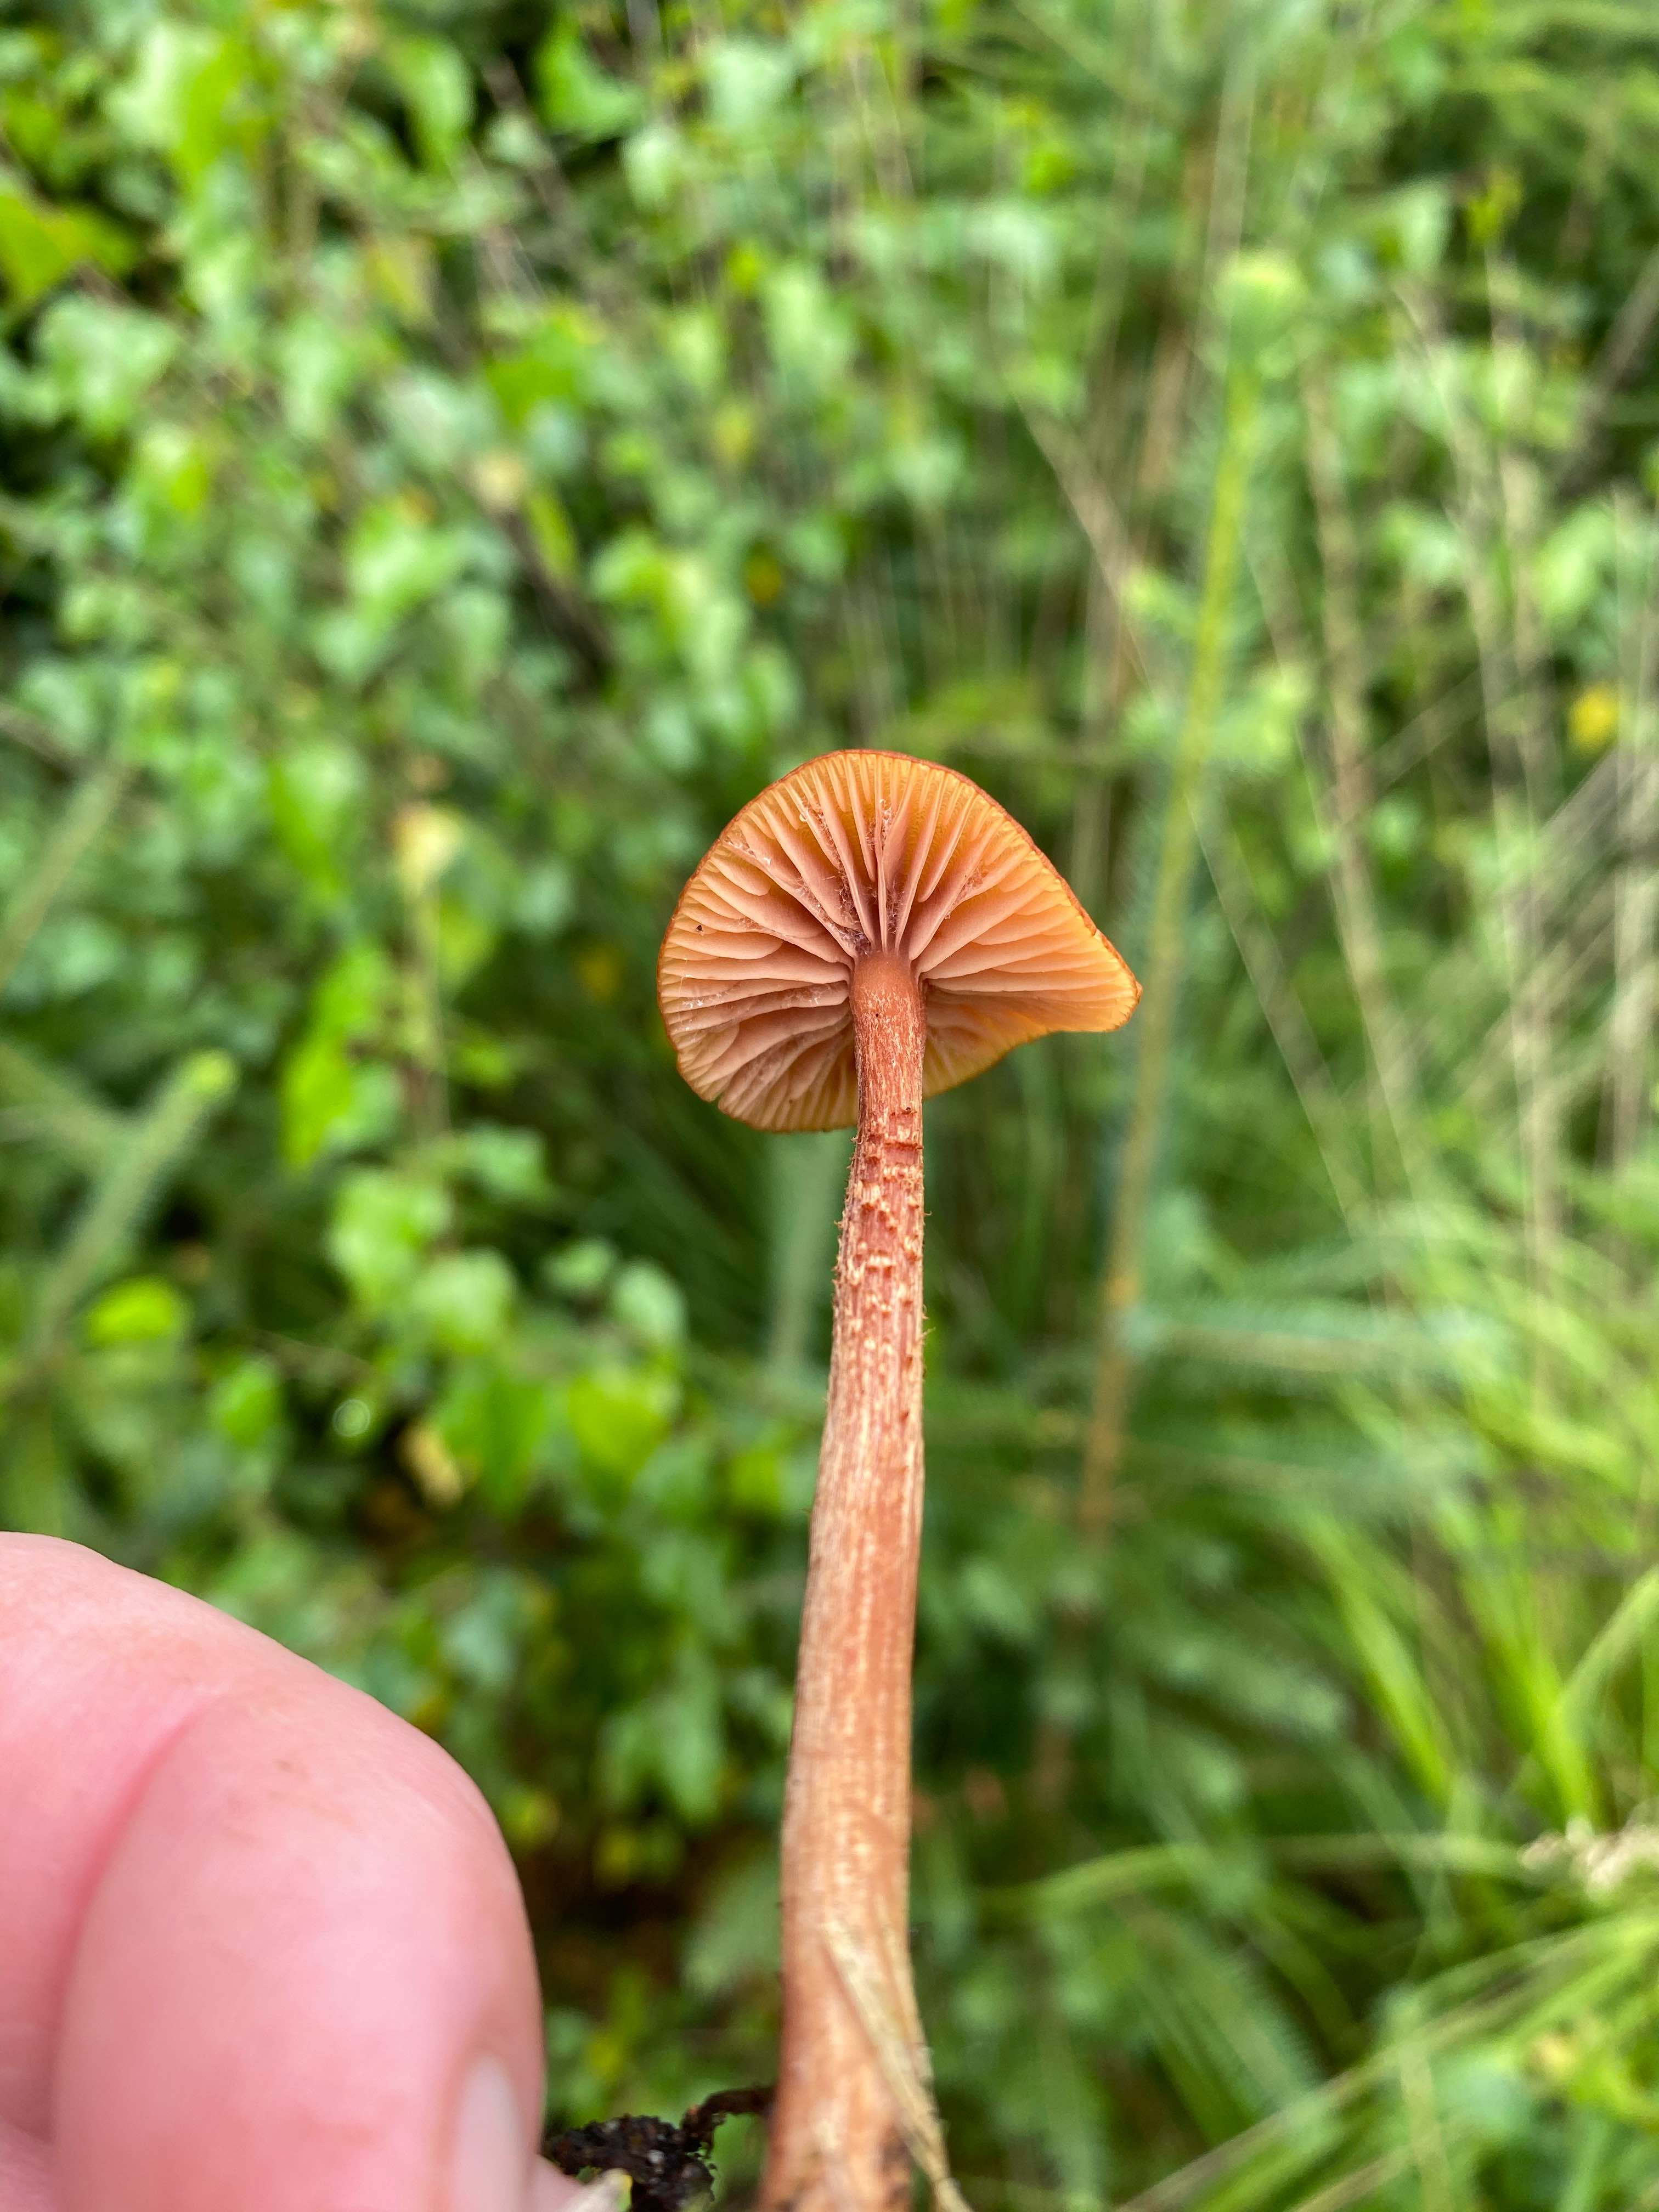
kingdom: Fungi
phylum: Basidiomycota
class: Agaricomycetes
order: Agaricales
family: Hydnangiaceae
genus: Laccaria
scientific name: Laccaria proxima
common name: stor ametysthat
